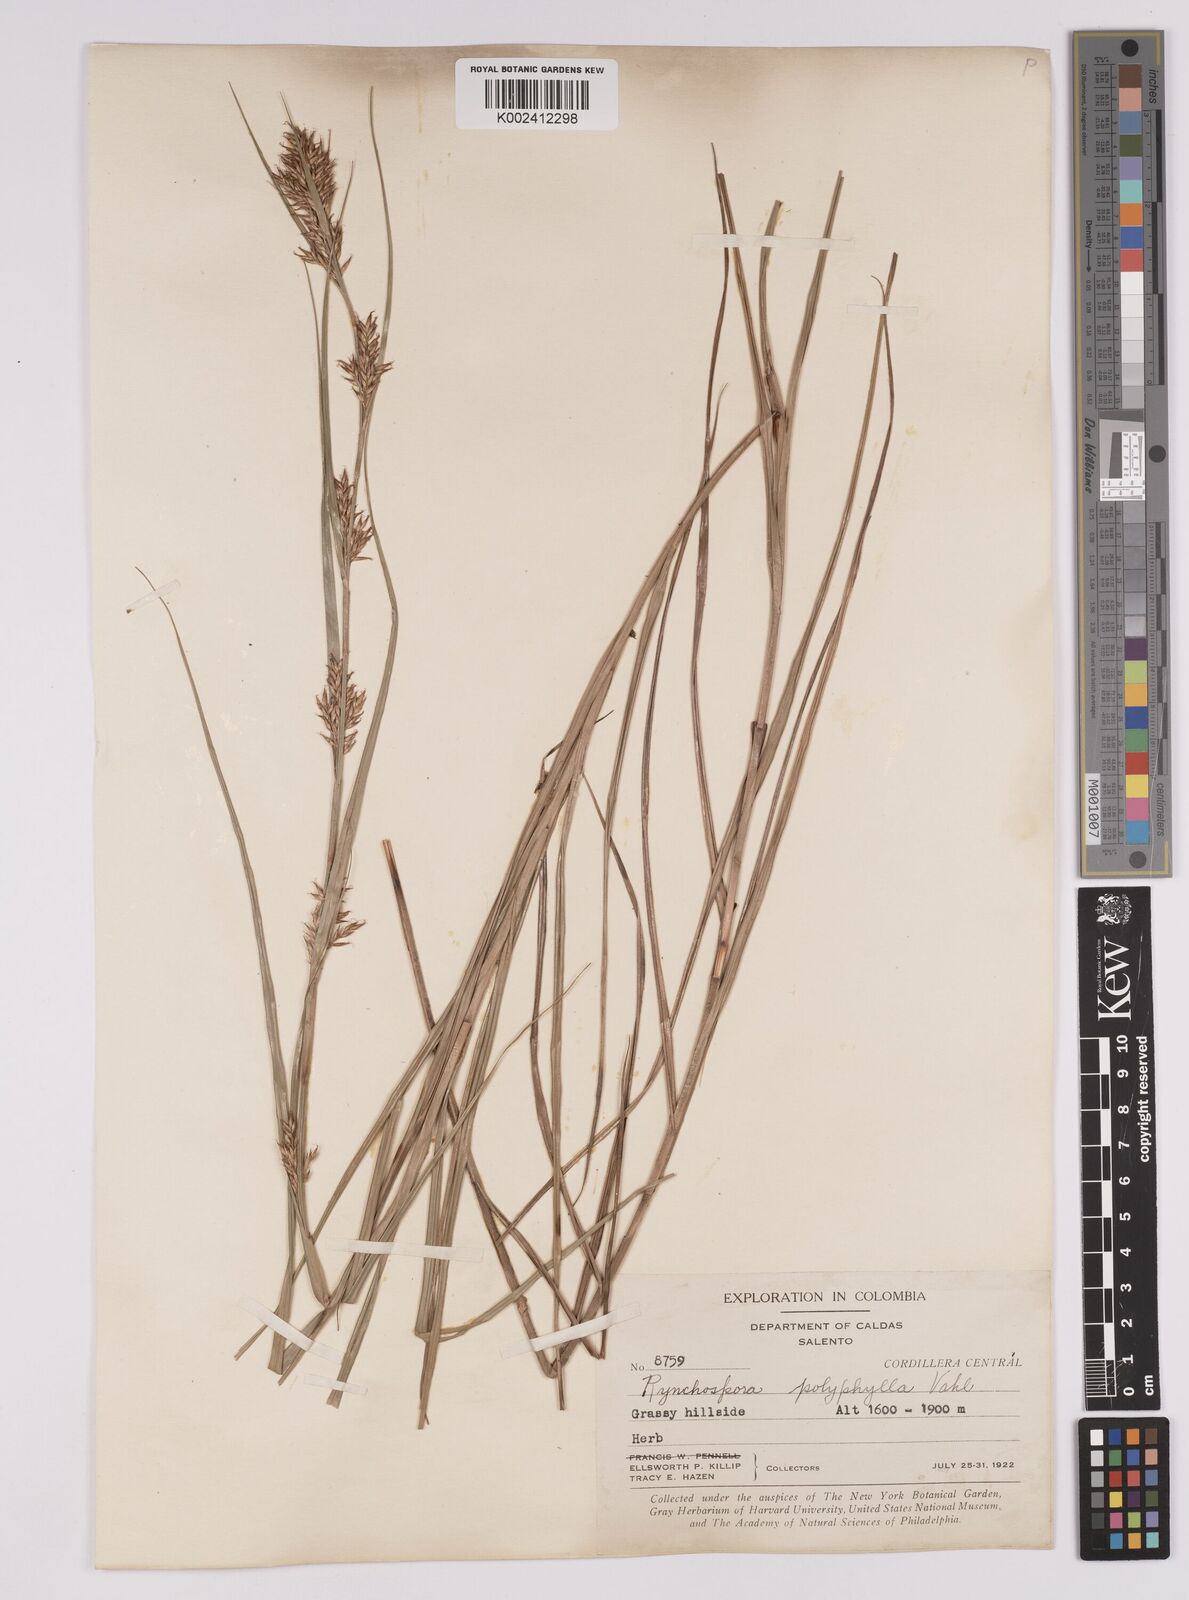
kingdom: Plantae
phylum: Tracheophyta
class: Liliopsida
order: Poales
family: Cyperaceae
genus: Rhynchospora
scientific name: Rhynchospora polyphylla
